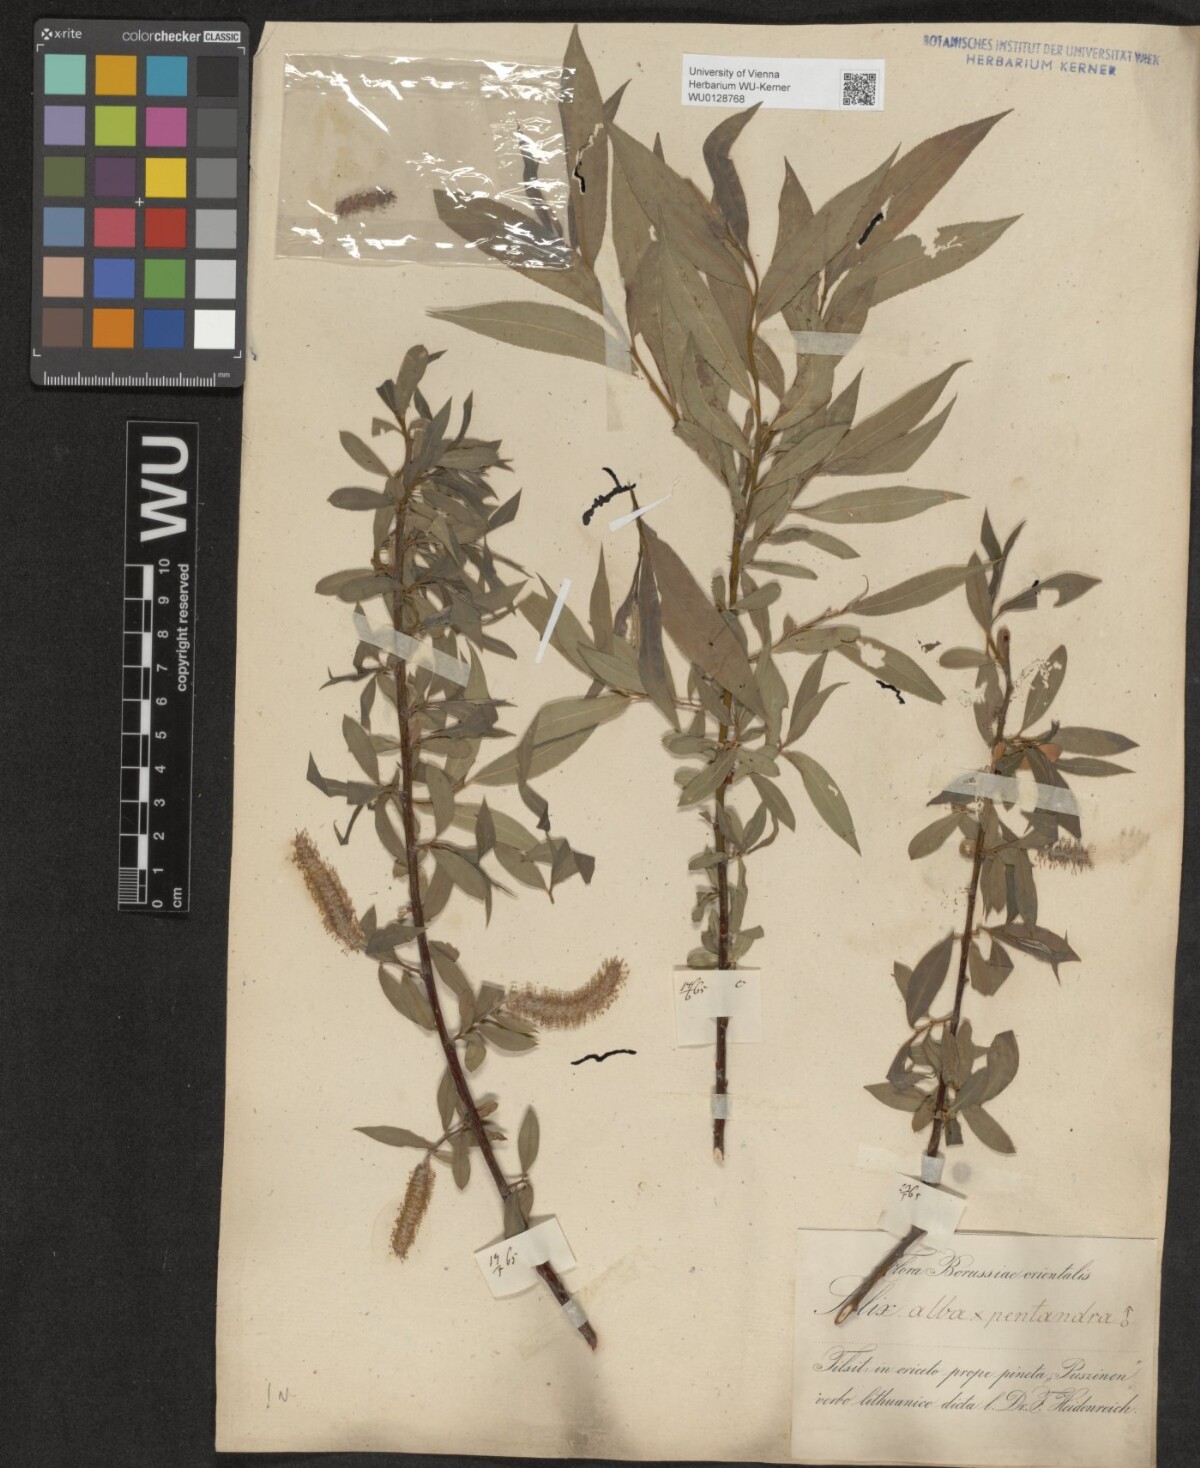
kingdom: Plantae
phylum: Tracheophyta
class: Magnoliopsida
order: Malpighiales
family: Salicaceae
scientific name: Salicaceae
